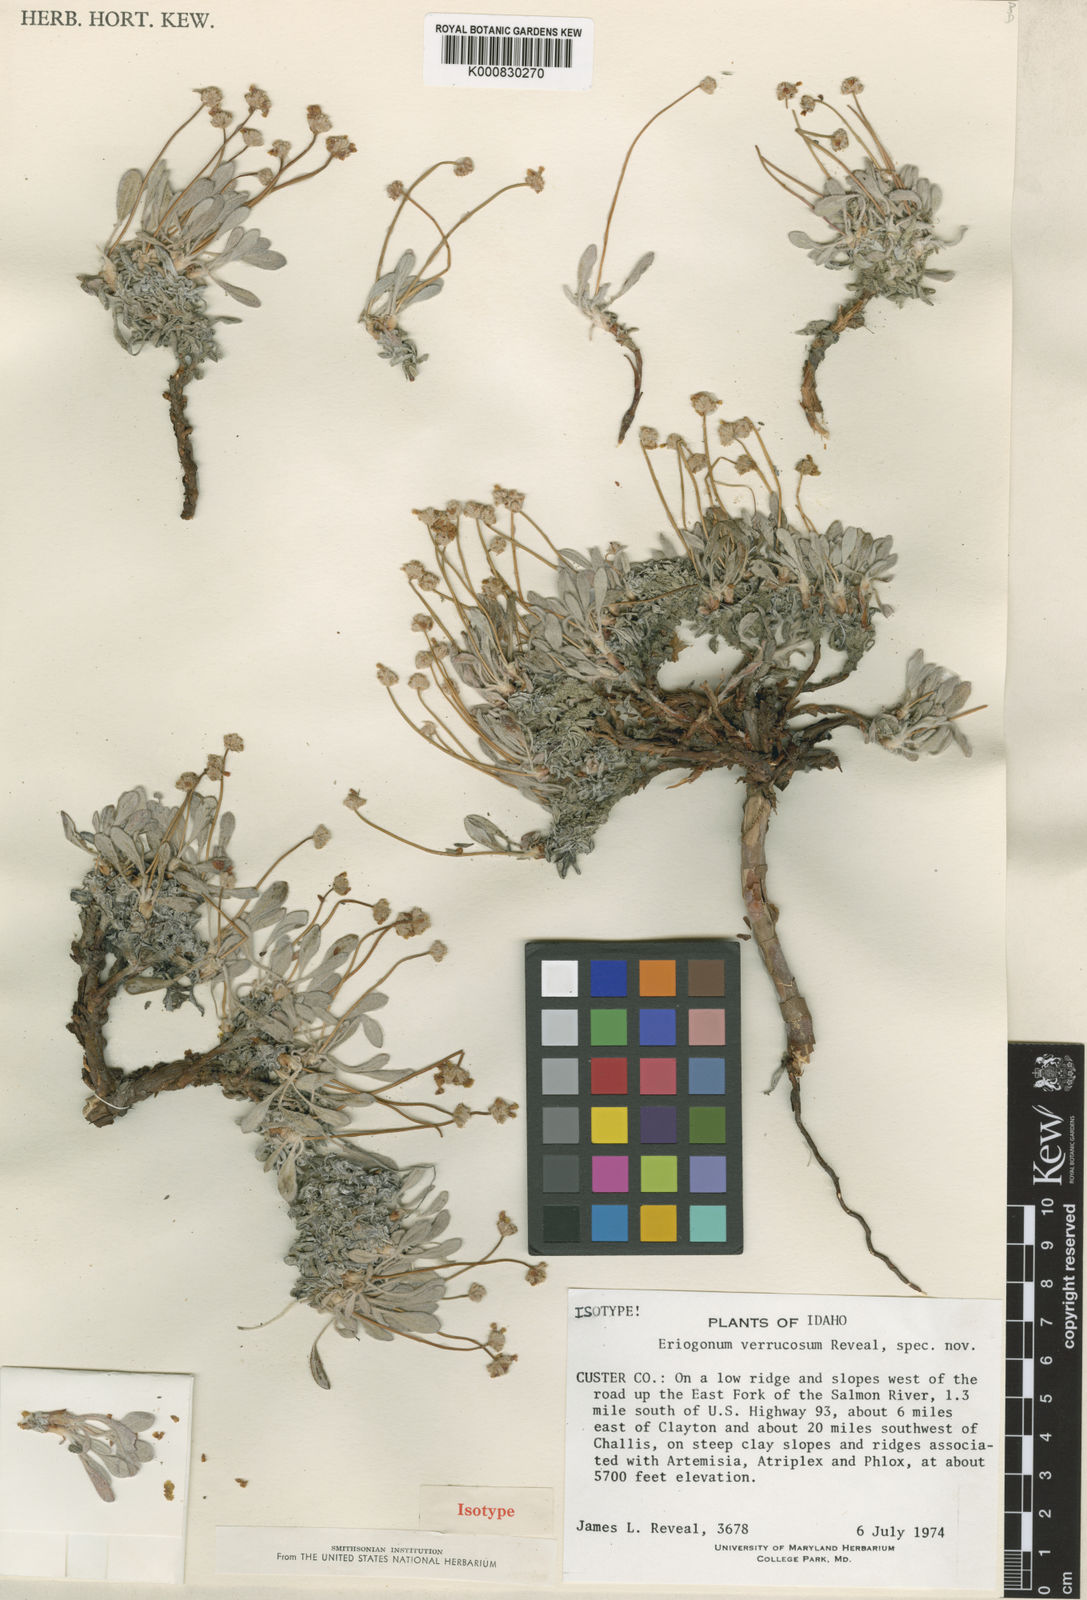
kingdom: Plantae
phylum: Tracheophyta
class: Magnoliopsida
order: Caryophyllales
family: Polygonaceae
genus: Eriogonum
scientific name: Eriogonum crosbyae
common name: Crosby's wild buckwheat
